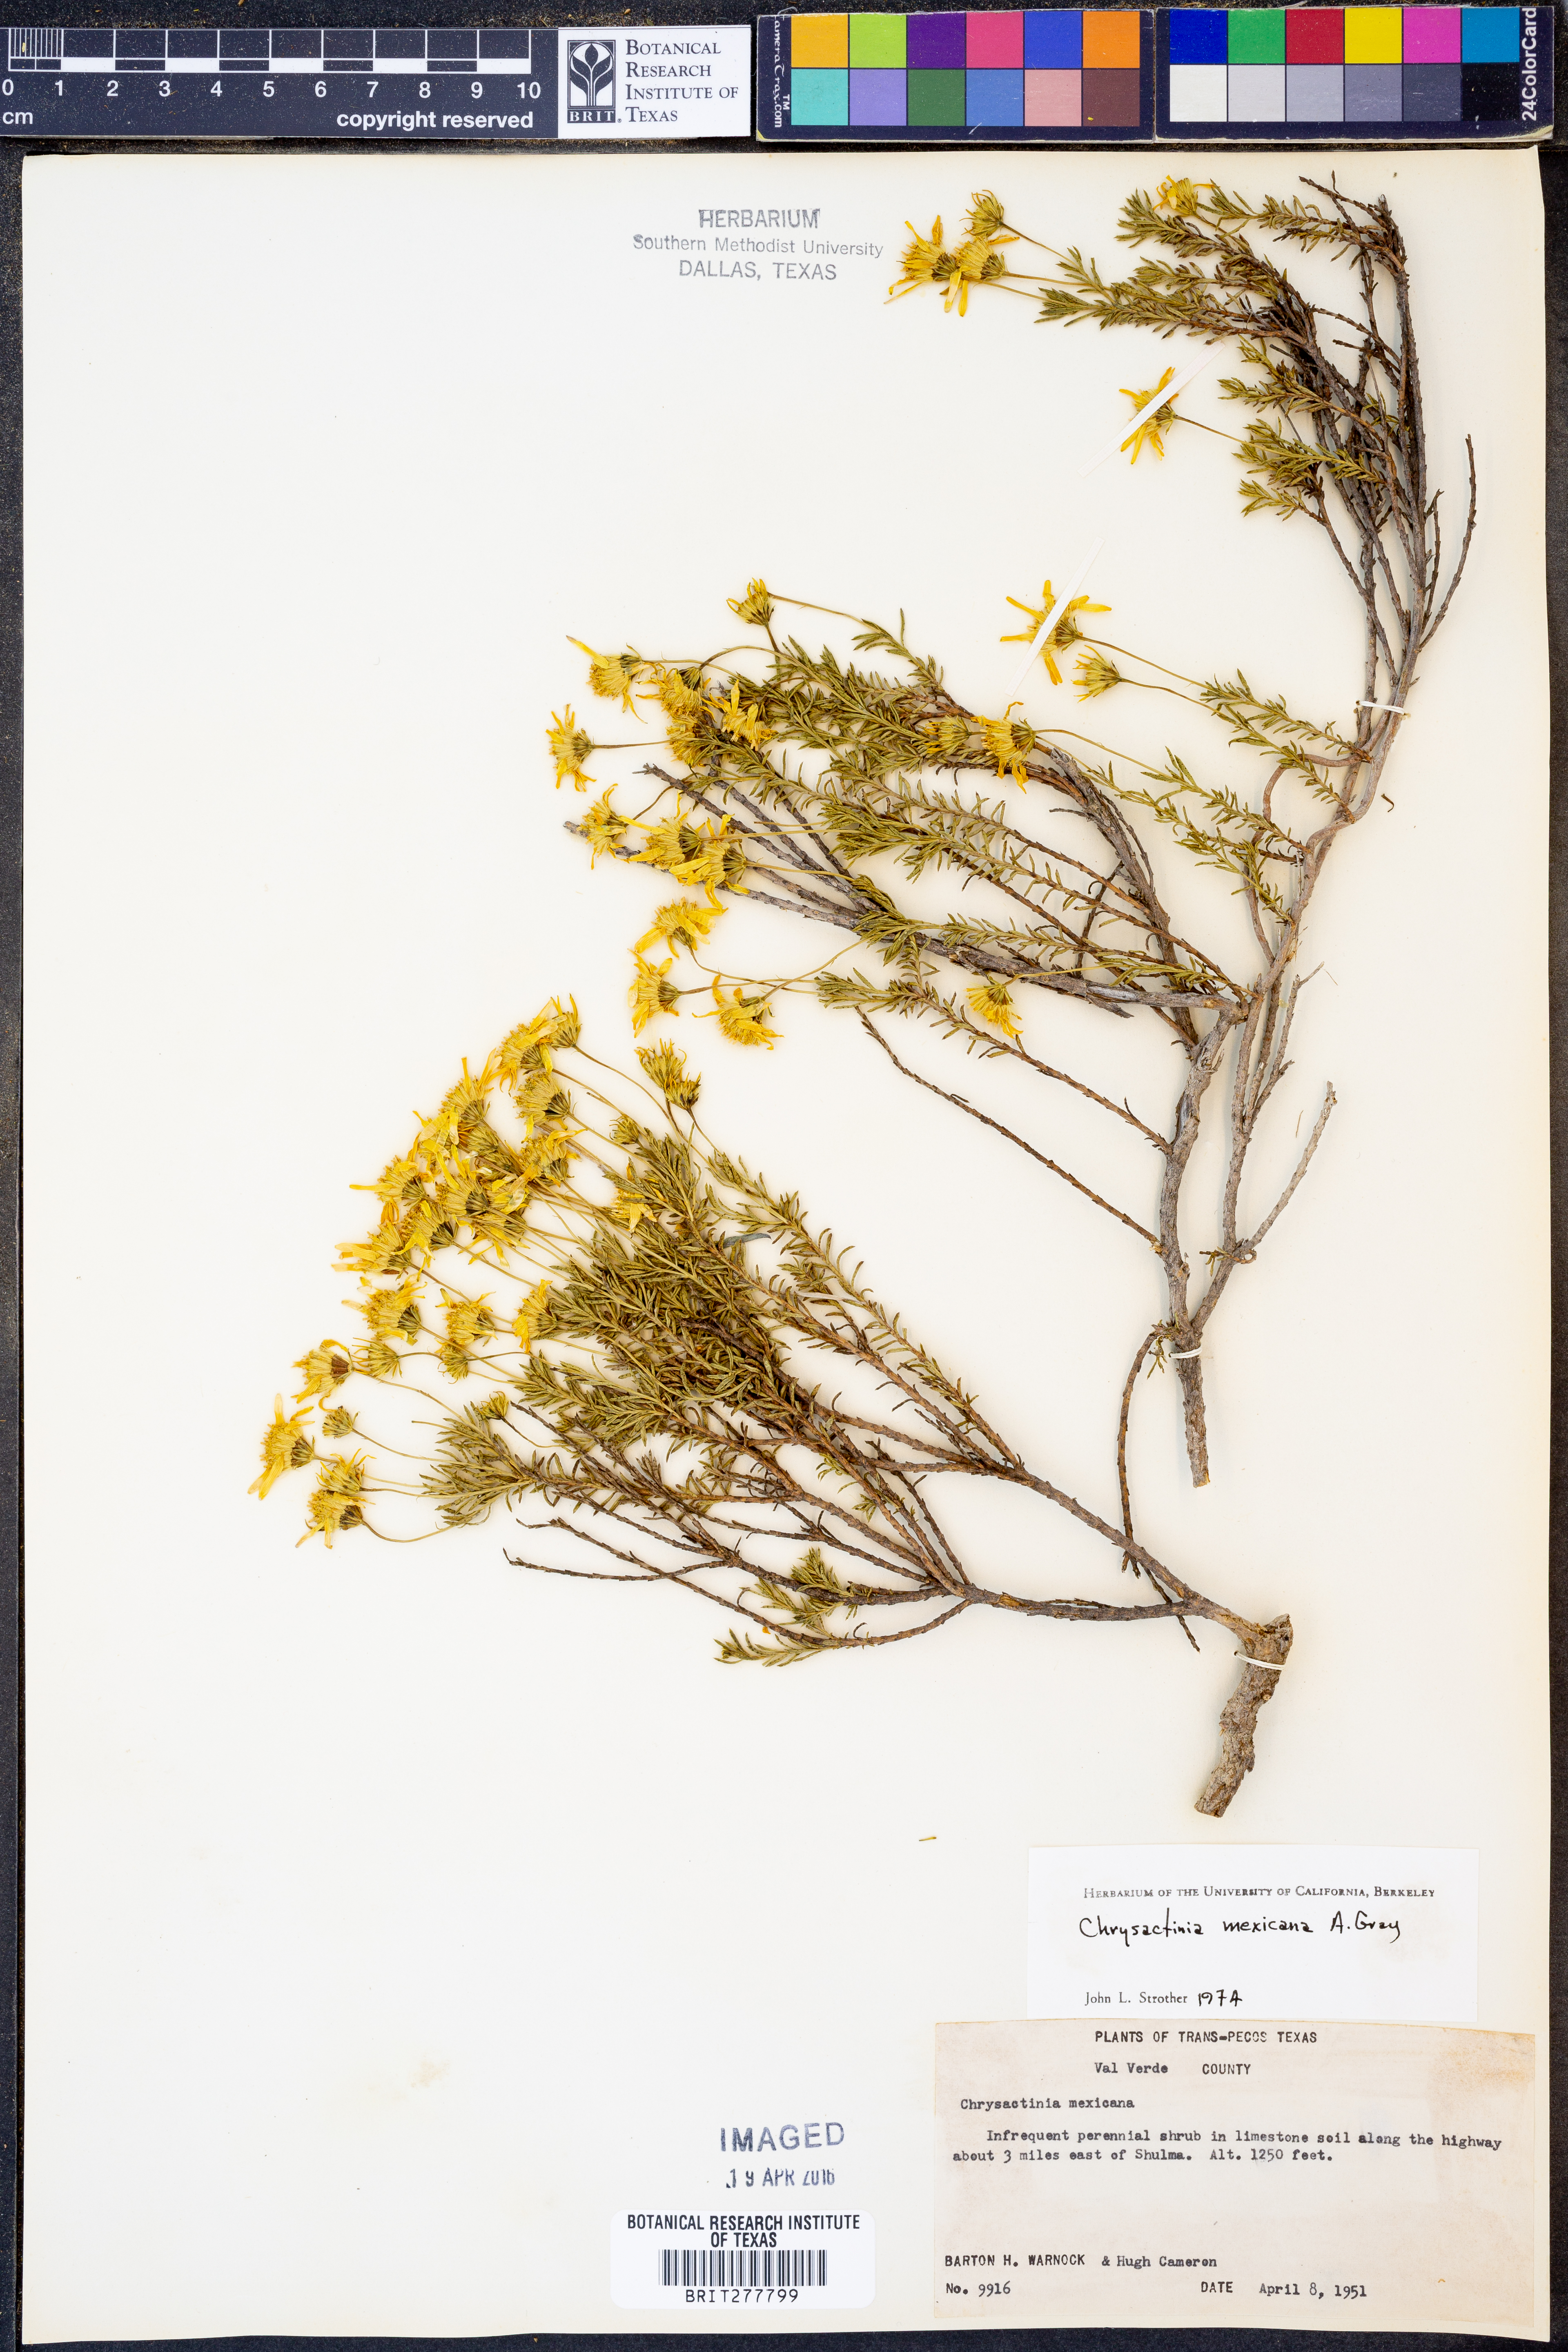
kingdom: Plantae
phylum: Tracheophyta
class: Magnoliopsida
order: Asterales
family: Asteraceae
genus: Chrysactinia
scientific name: Chrysactinia mexicana
